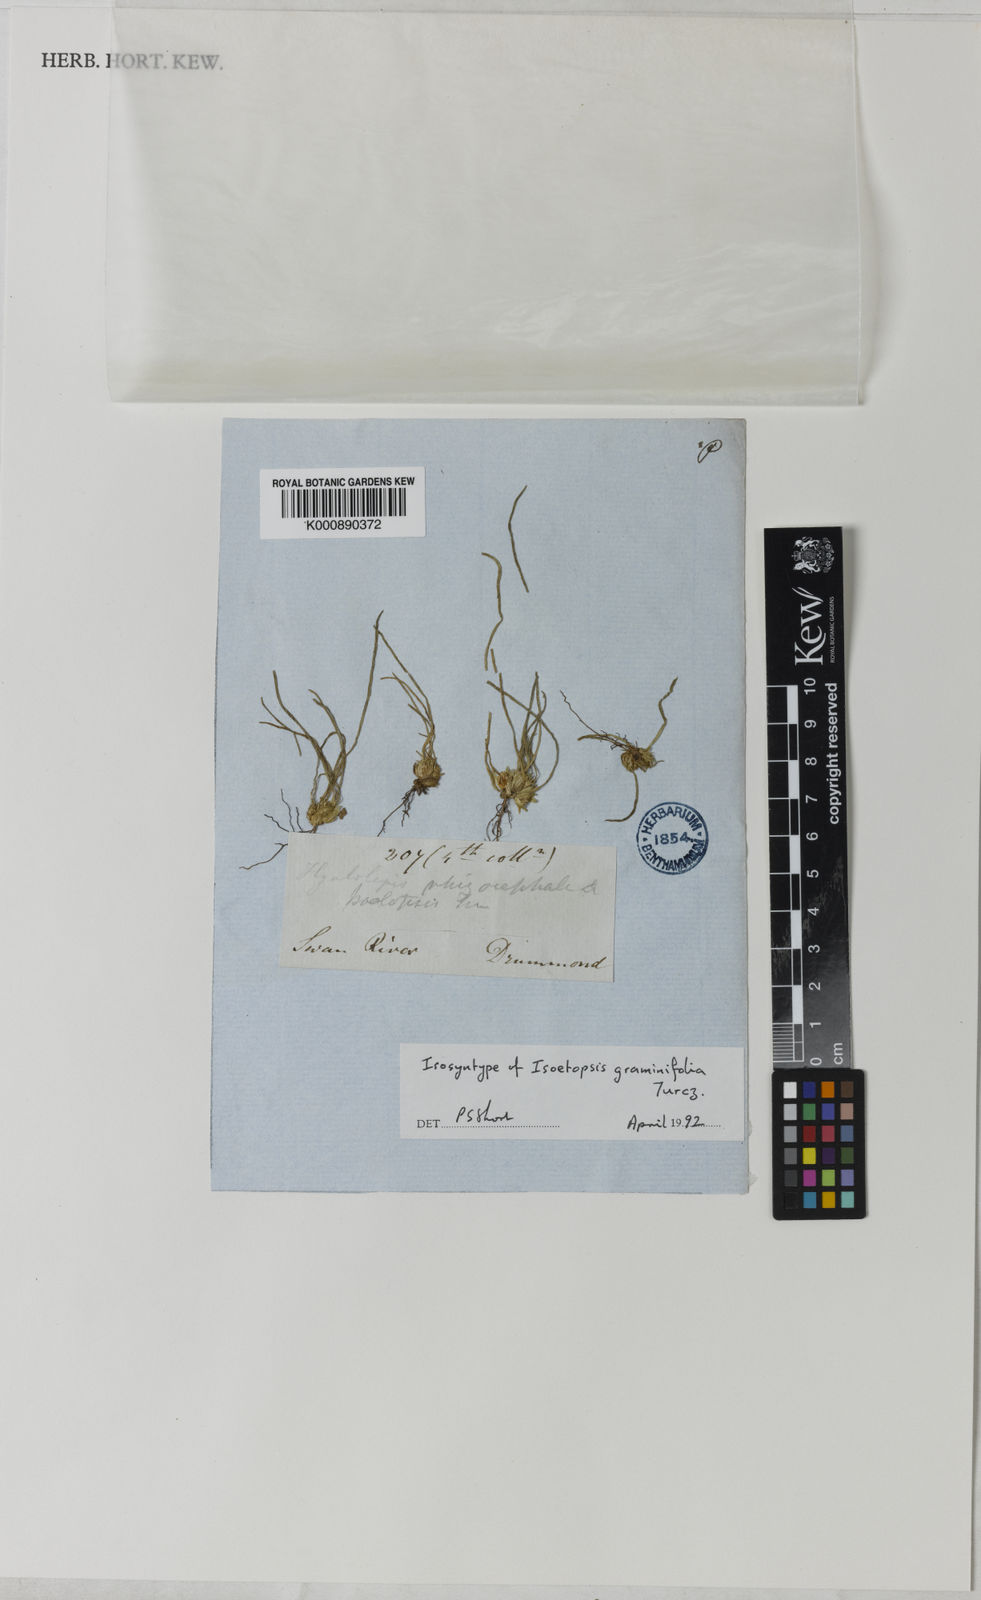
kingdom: Plantae
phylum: Tracheophyta
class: Magnoliopsida
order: Asterales
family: Asteraceae
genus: Isoetopsis
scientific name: Isoetopsis graminifolia
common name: Grass-cushion
